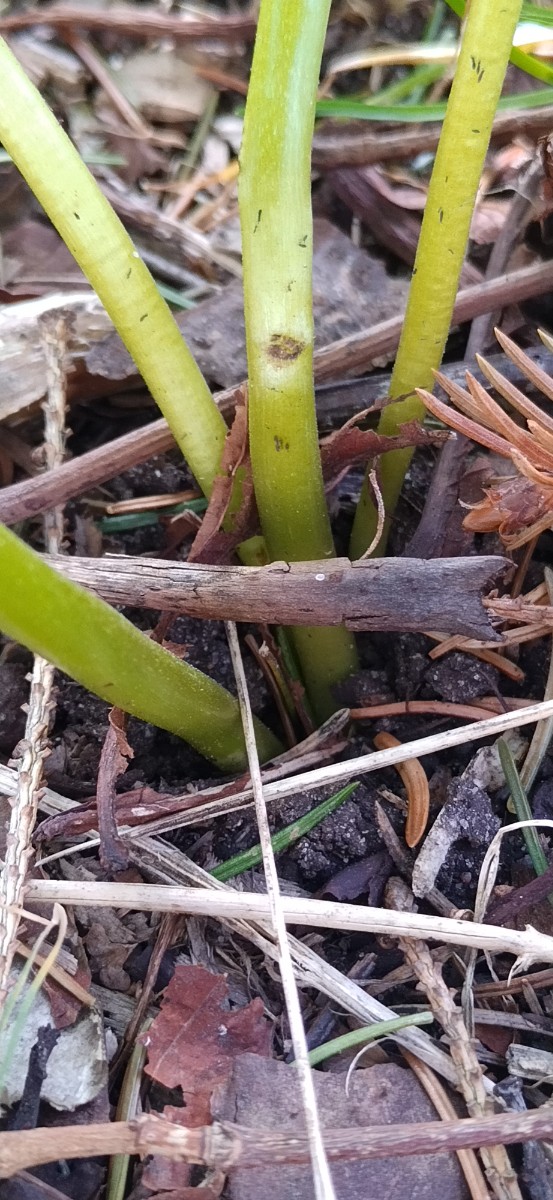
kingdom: Fungi
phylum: Basidiomycota
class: Ustilaginomycetes
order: Urocystidales
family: Urocystidaceae
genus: Urocystis
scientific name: Urocystis eranthidis
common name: erantis-brand
